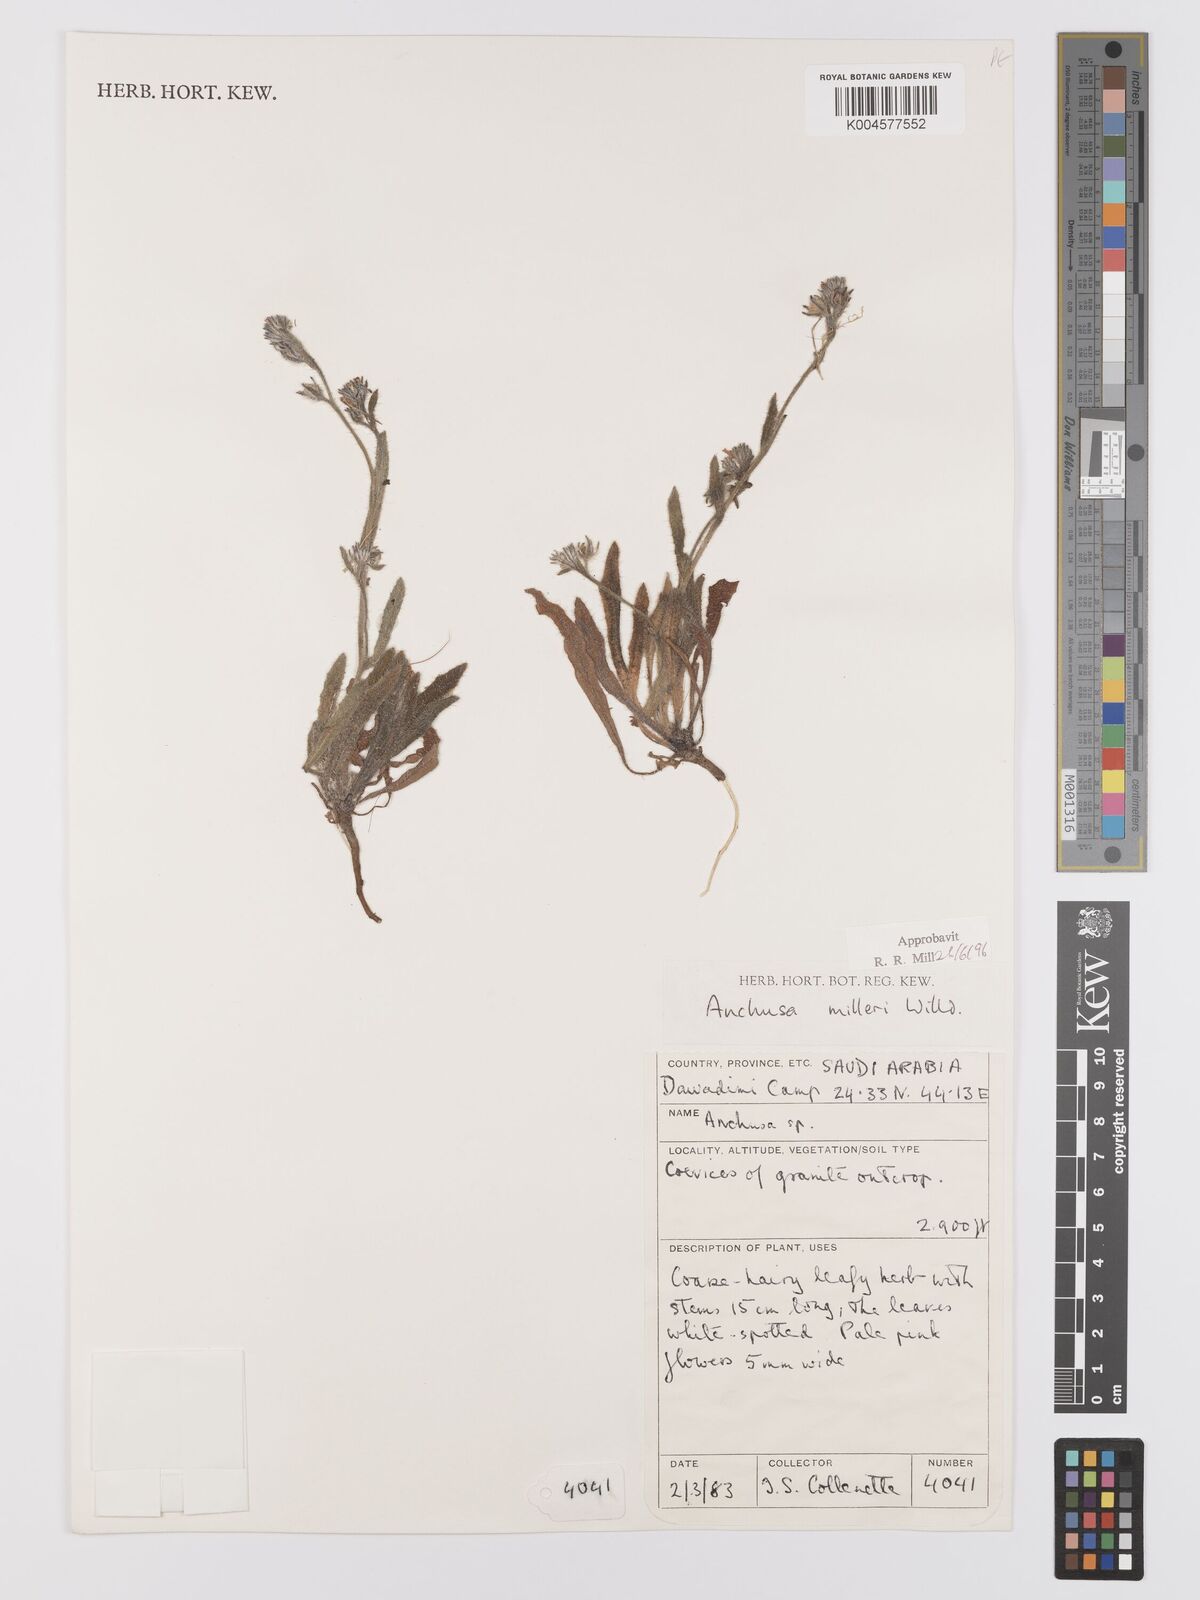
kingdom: Plantae
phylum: Tracheophyta
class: Magnoliopsida
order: Boraginales
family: Boraginaceae
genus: Anchusa
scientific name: Anchusa milleri
